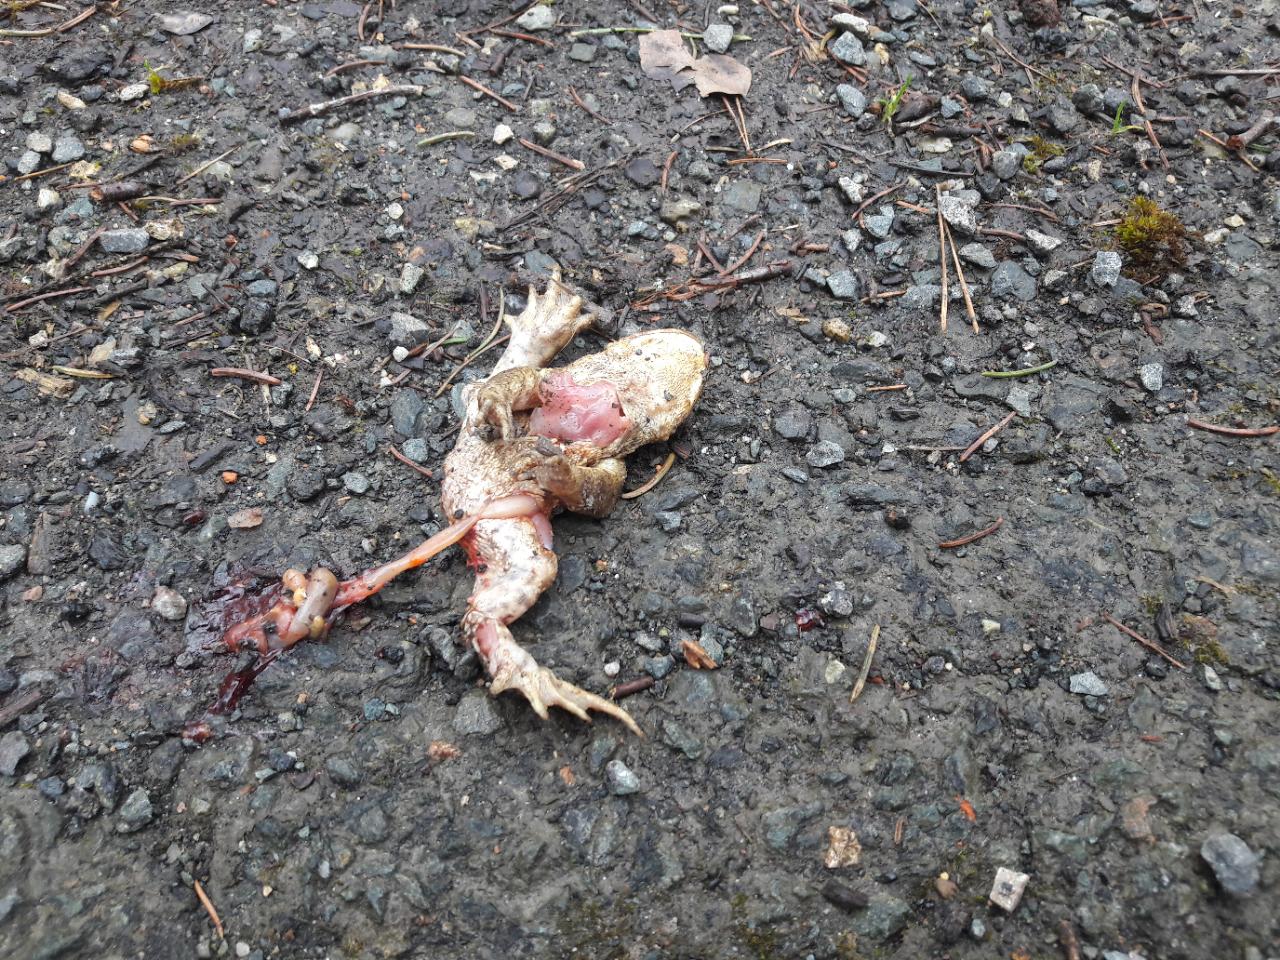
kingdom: Animalia
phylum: Chordata
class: Amphibia
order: Anura
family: Bufonidae
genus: Bufo
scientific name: Bufo bufo
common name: Common toad
